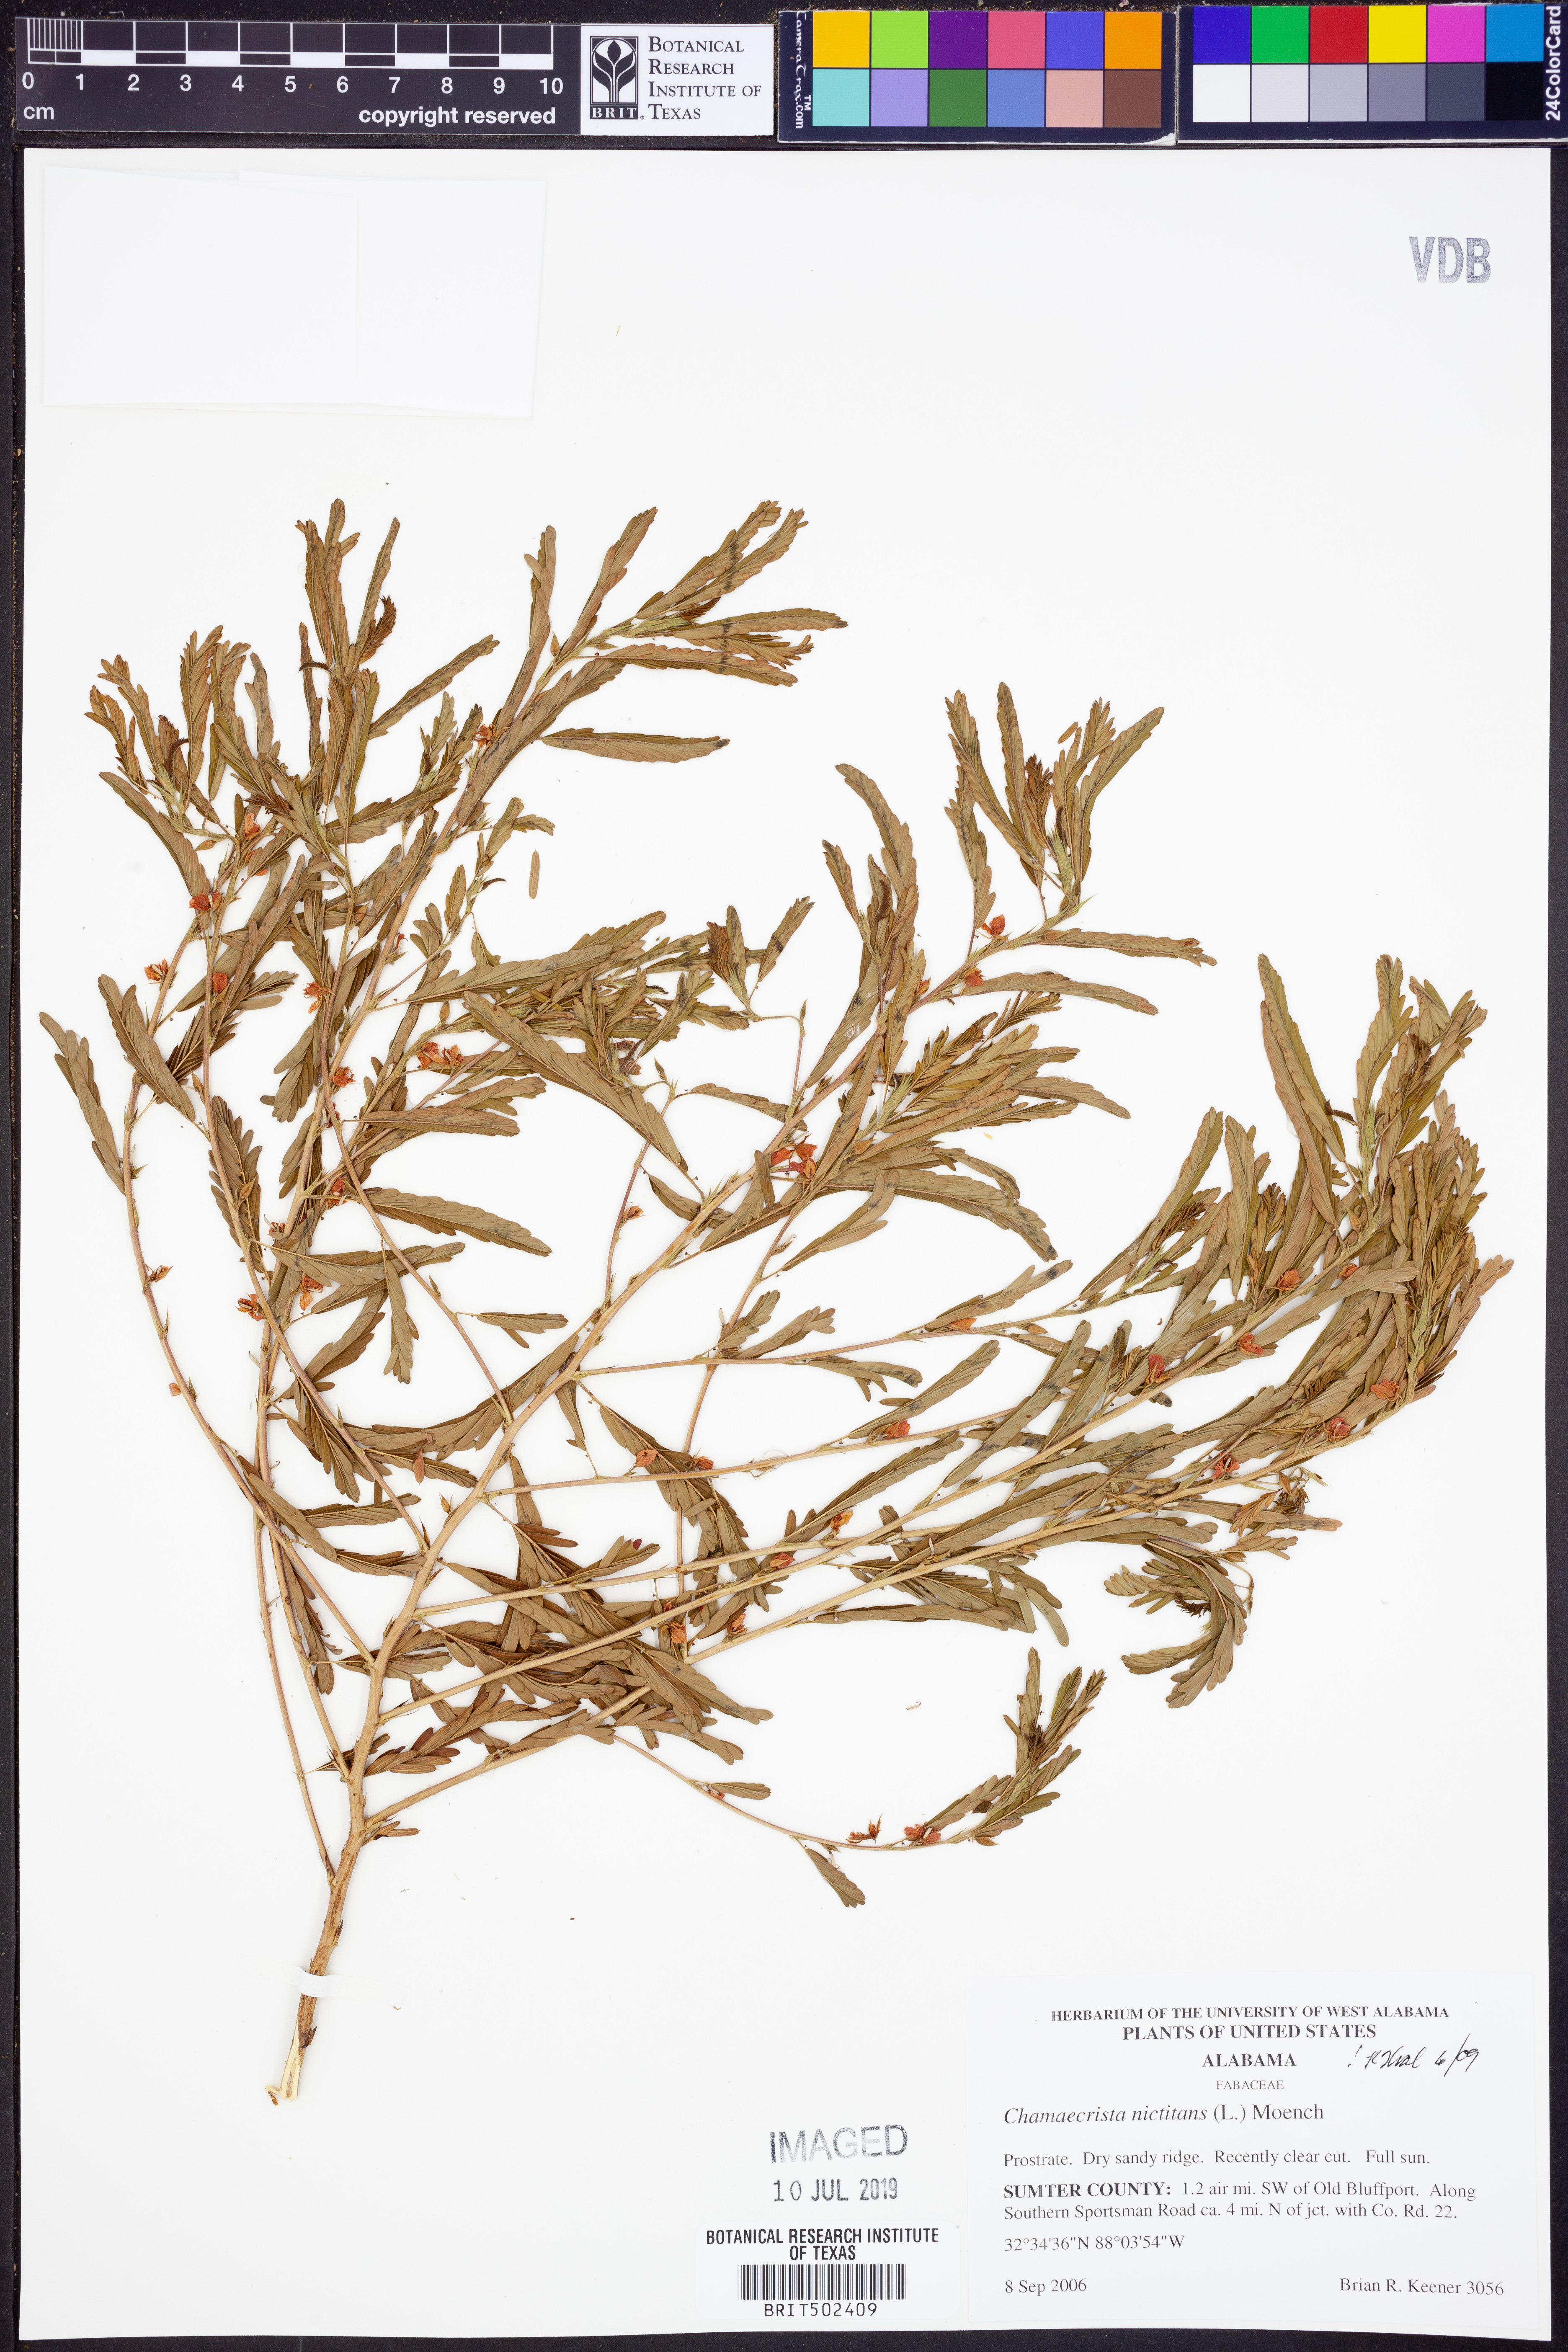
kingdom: Plantae
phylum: Tracheophyta
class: Magnoliopsida
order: Fabales
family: Fabaceae
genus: Chamaecrista
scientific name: Chamaecrista nictitans
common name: Sensitive cassia
